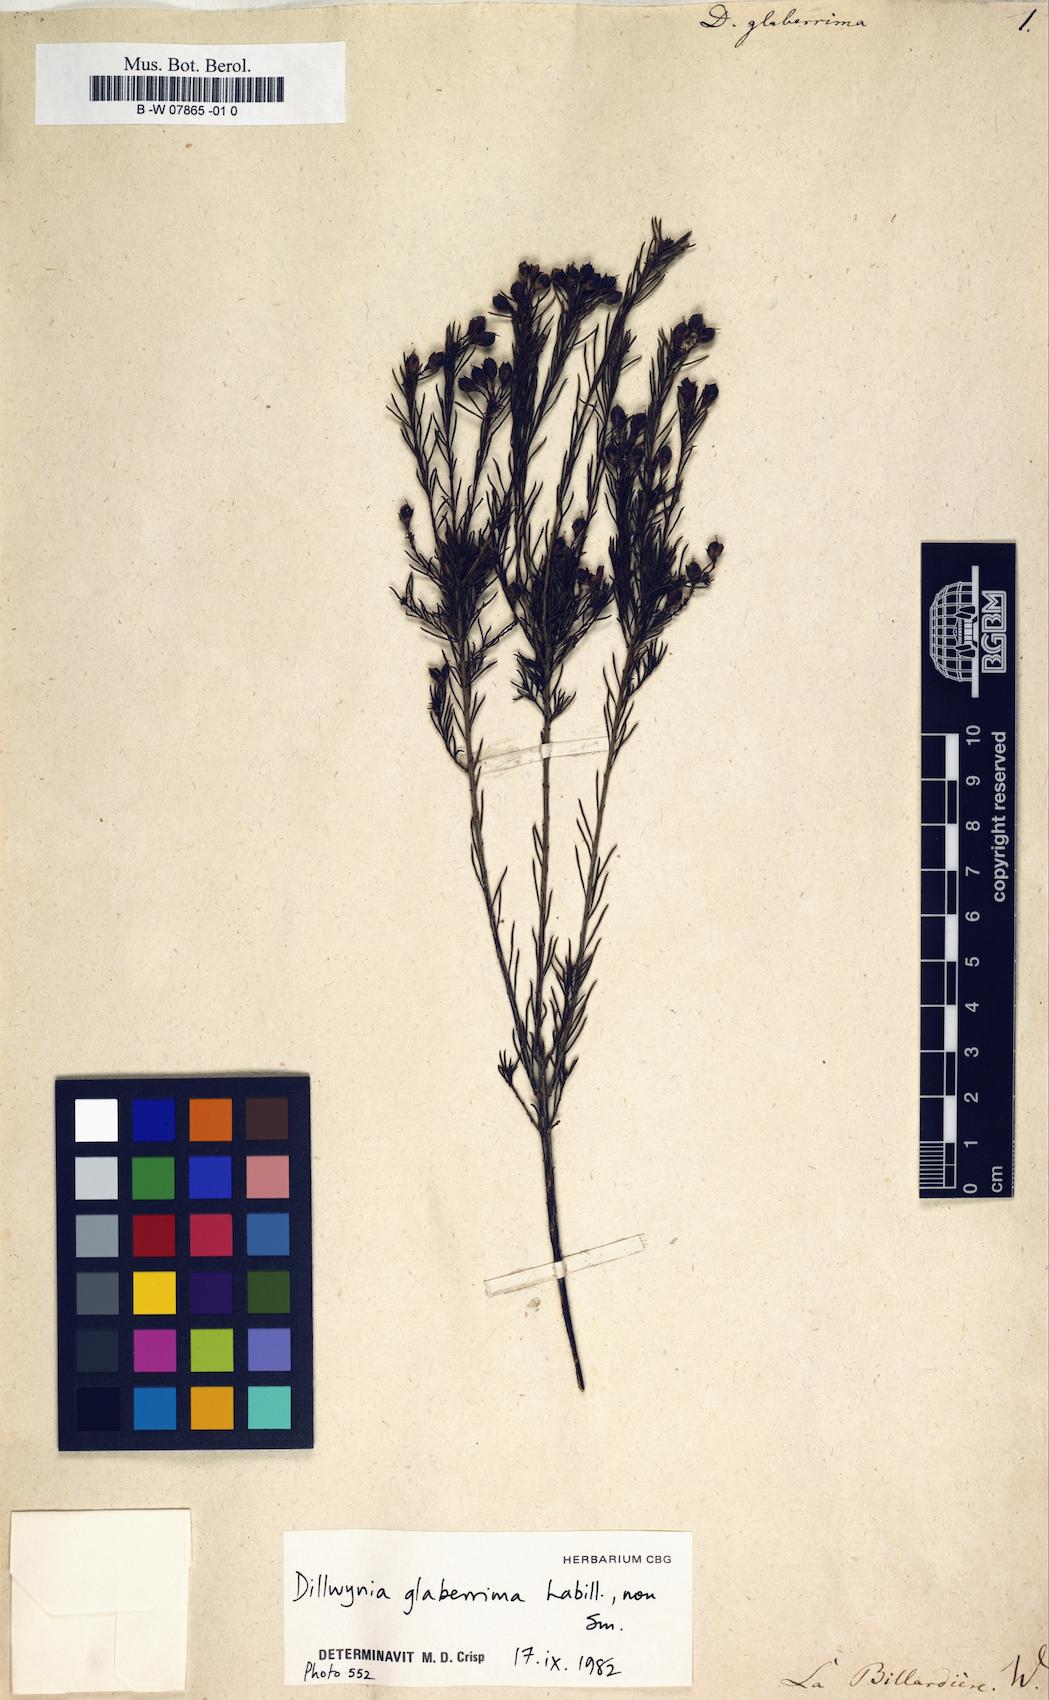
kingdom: Plantae
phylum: Tracheophyta
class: Magnoliopsida
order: Fabales
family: Fabaceae
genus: Dillwynia
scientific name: Dillwynia glaberrima
